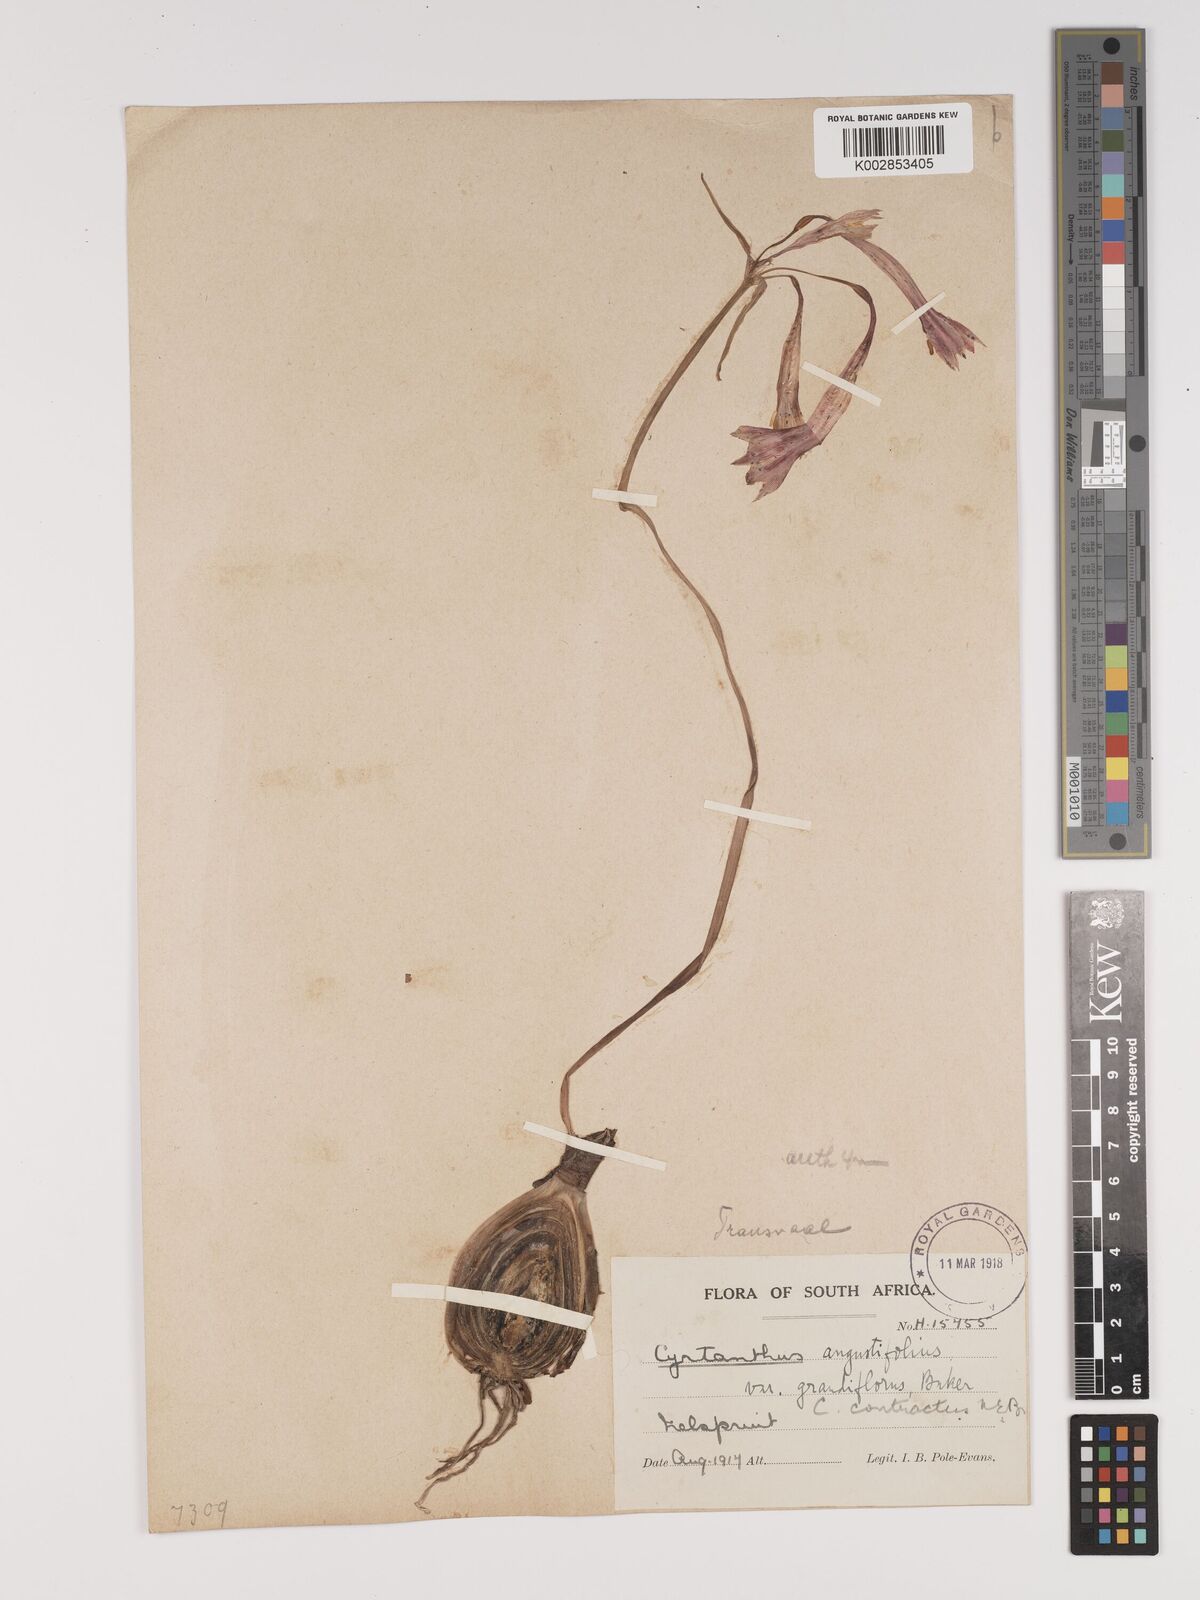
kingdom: Plantae
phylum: Tracheophyta
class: Liliopsida
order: Asparagales
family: Amaryllidaceae
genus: Cyrtanthus
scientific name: Cyrtanthus contractus
